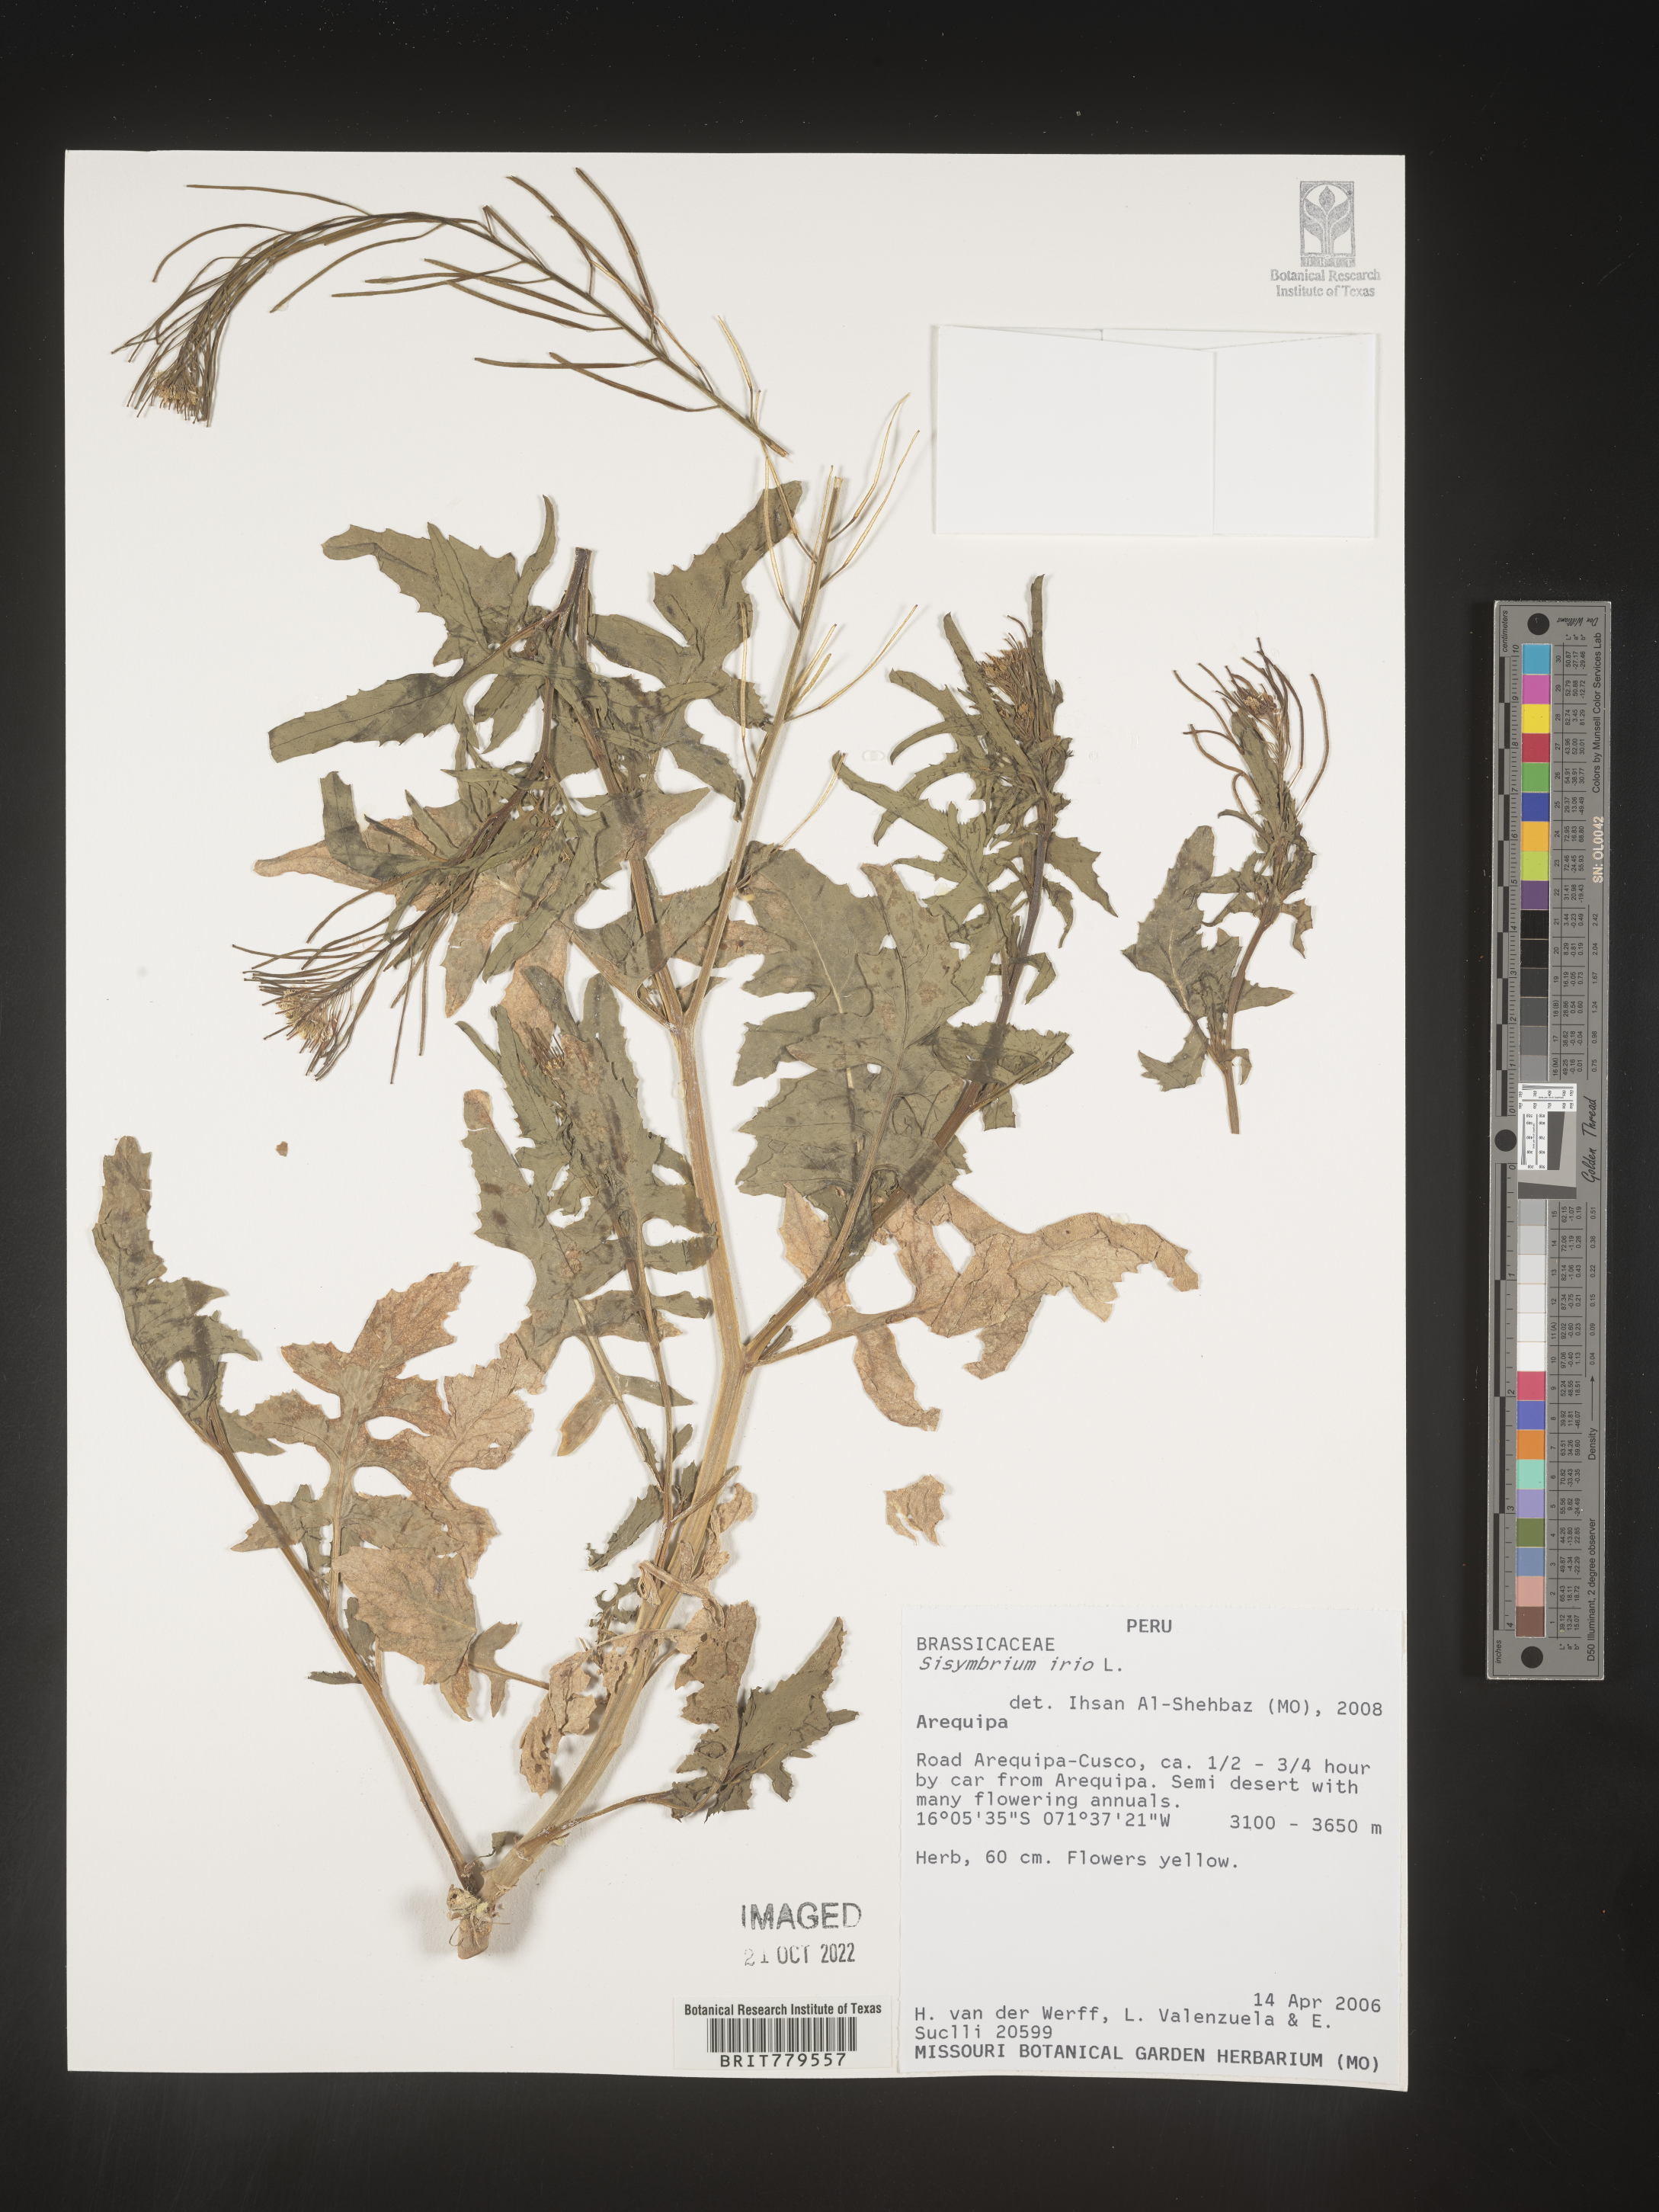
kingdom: Plantae
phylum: Tracheophyta
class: Magnoliopsida
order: Brassicales
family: Brassicaceae
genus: Sisymbrium
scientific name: Sisymbrium
